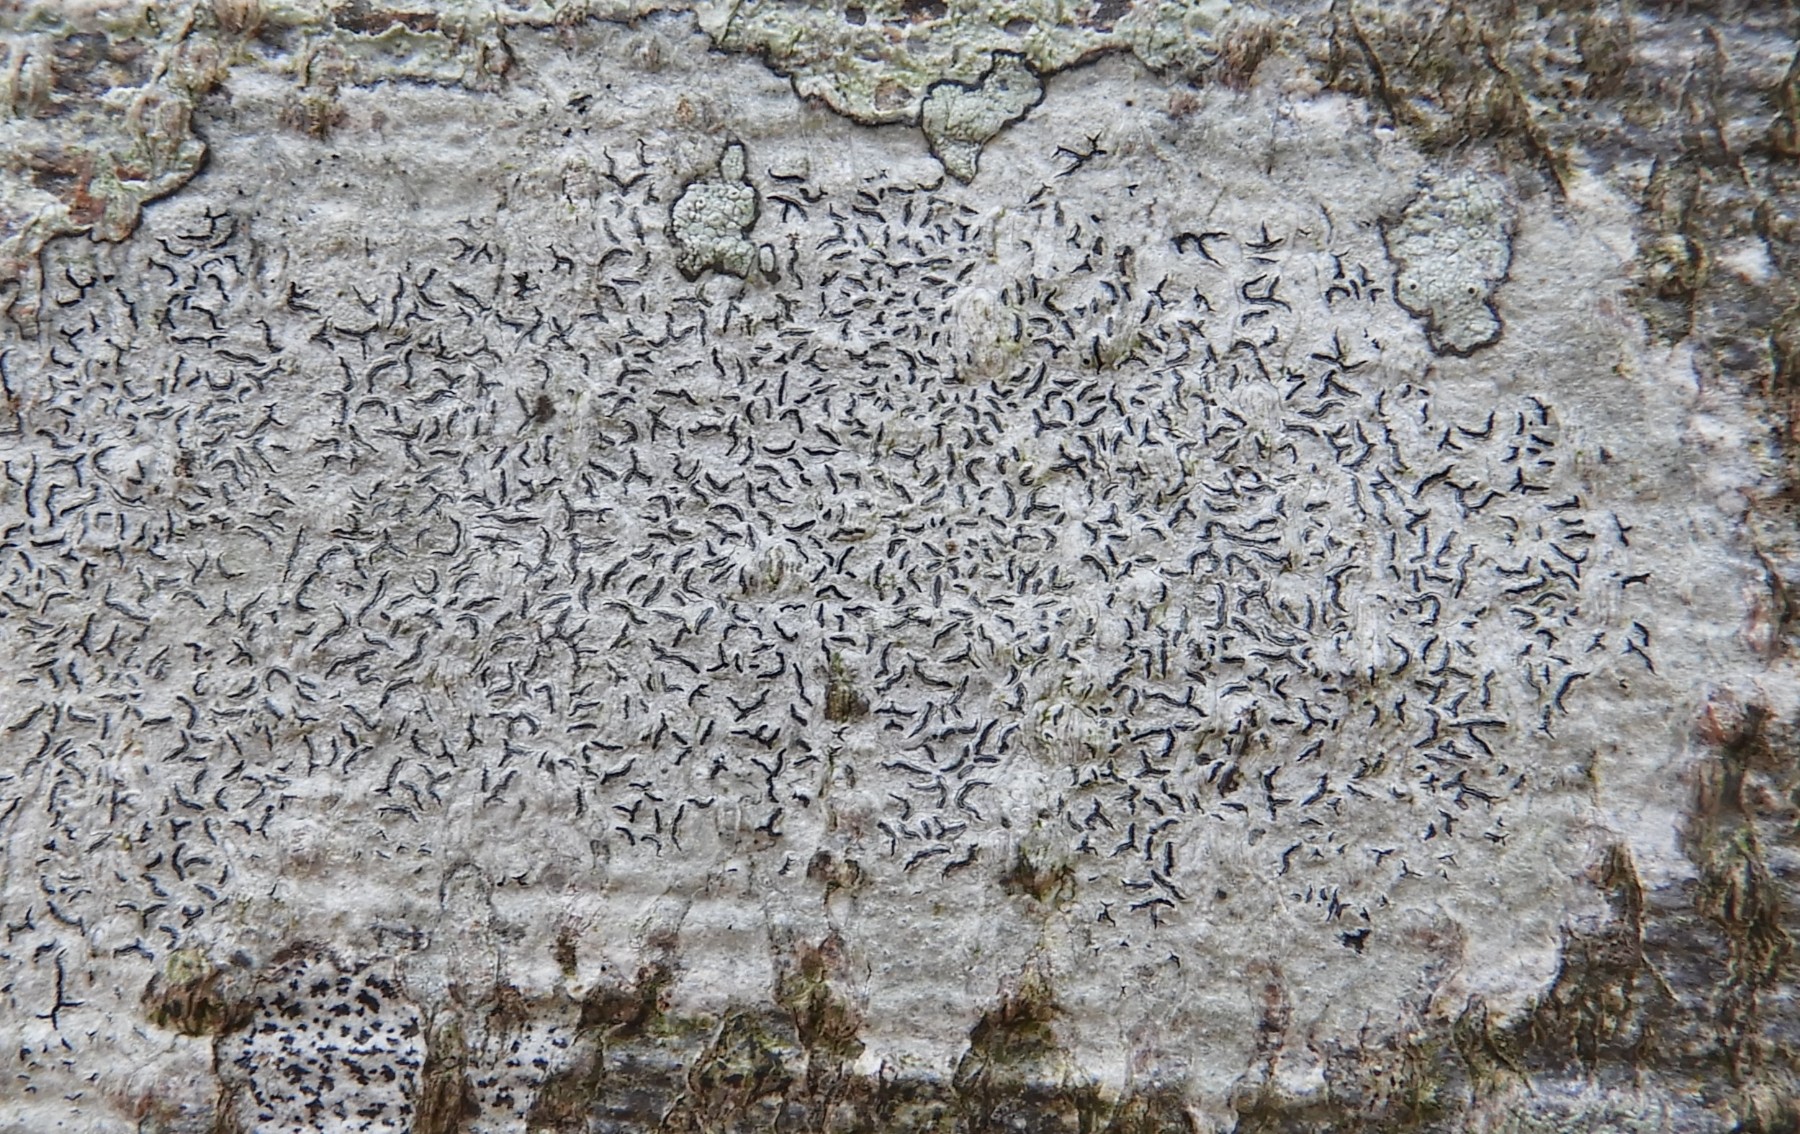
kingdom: Fungi
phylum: Ascomycota
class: Lecanoromycetes
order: Ostropales
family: Graphidaceae
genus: Graphis
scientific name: Graphis scripta
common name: almindelig skriftlav
